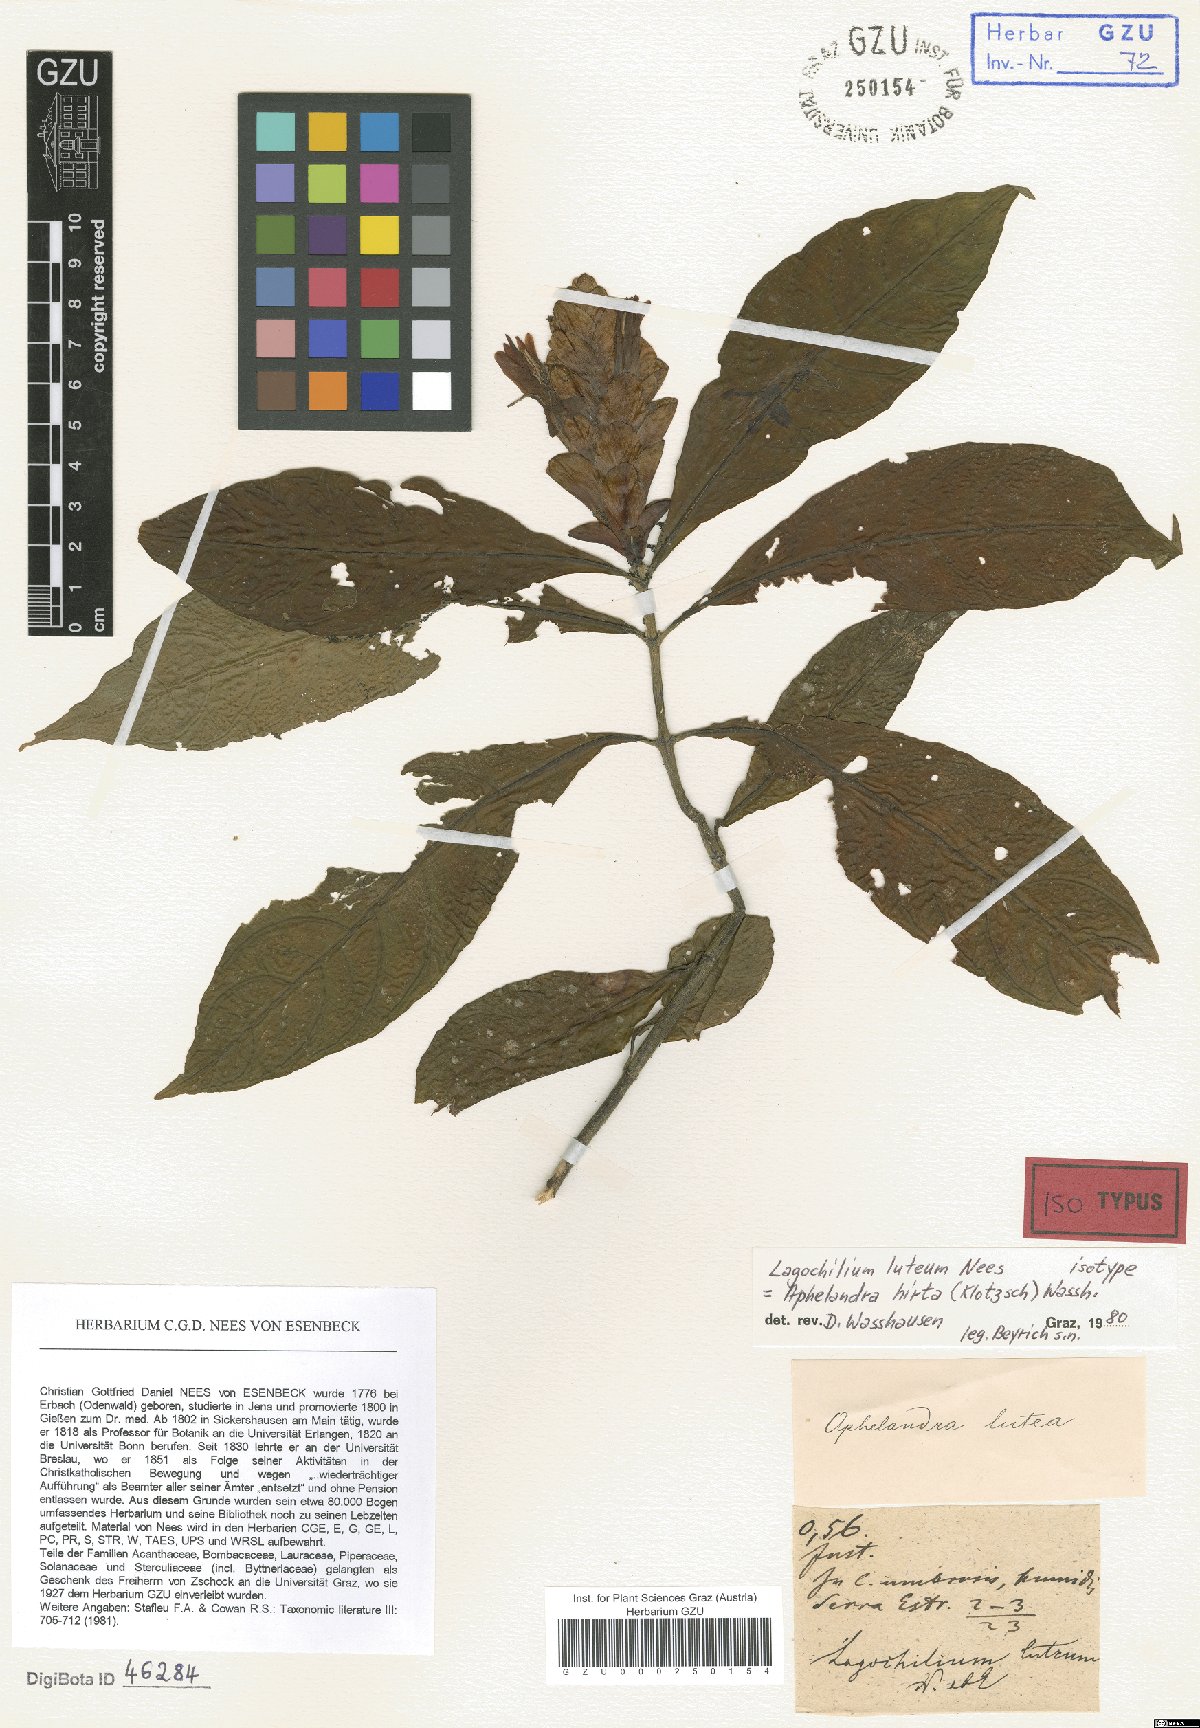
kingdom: Plantae
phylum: Tracheophyta
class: Magnoliopsida
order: Lamiales
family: Acanthaceae
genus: Aphelandra
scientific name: Aphelandra hirta
